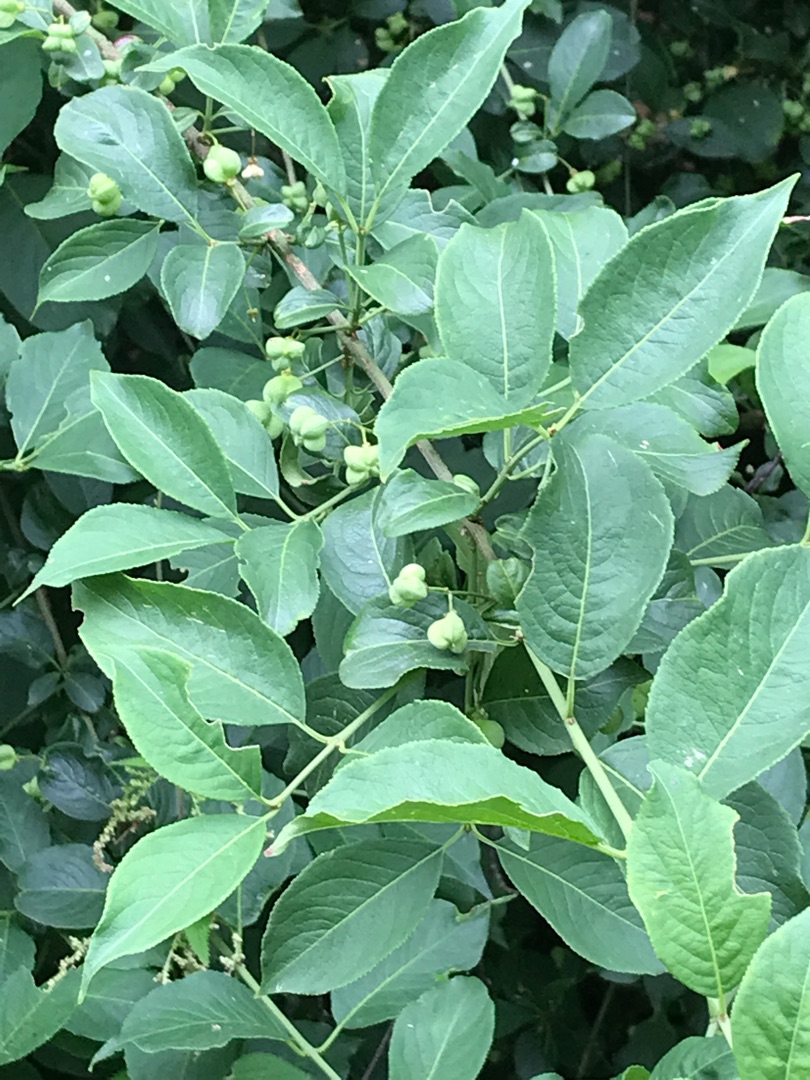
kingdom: Plantae
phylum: Tracheophyta
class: Magnoliopsida
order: Celastrales
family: Celastraceae
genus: Euonymus
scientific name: Euonymus europaeus
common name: Benved
